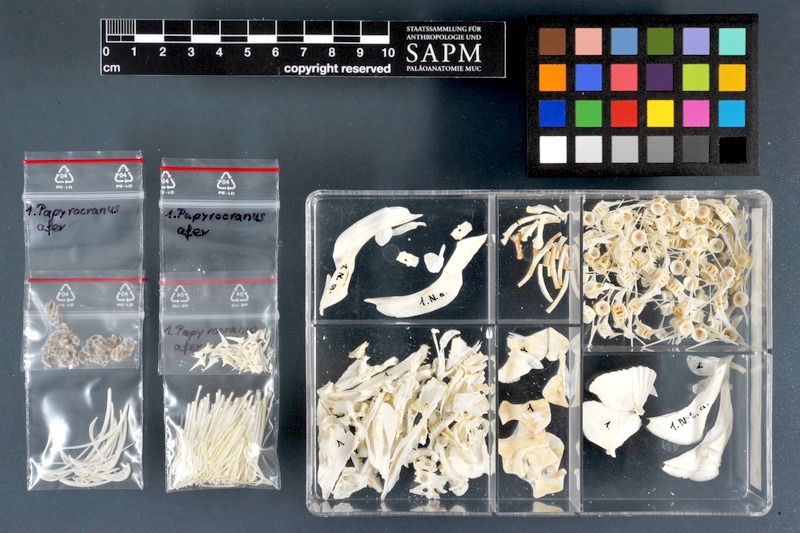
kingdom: Animalia
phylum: Chordata
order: Osteoglossiformes
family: Notopteridae
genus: Papyrocranus
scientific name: Papyrocranus afer
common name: Reticulate knifefish
